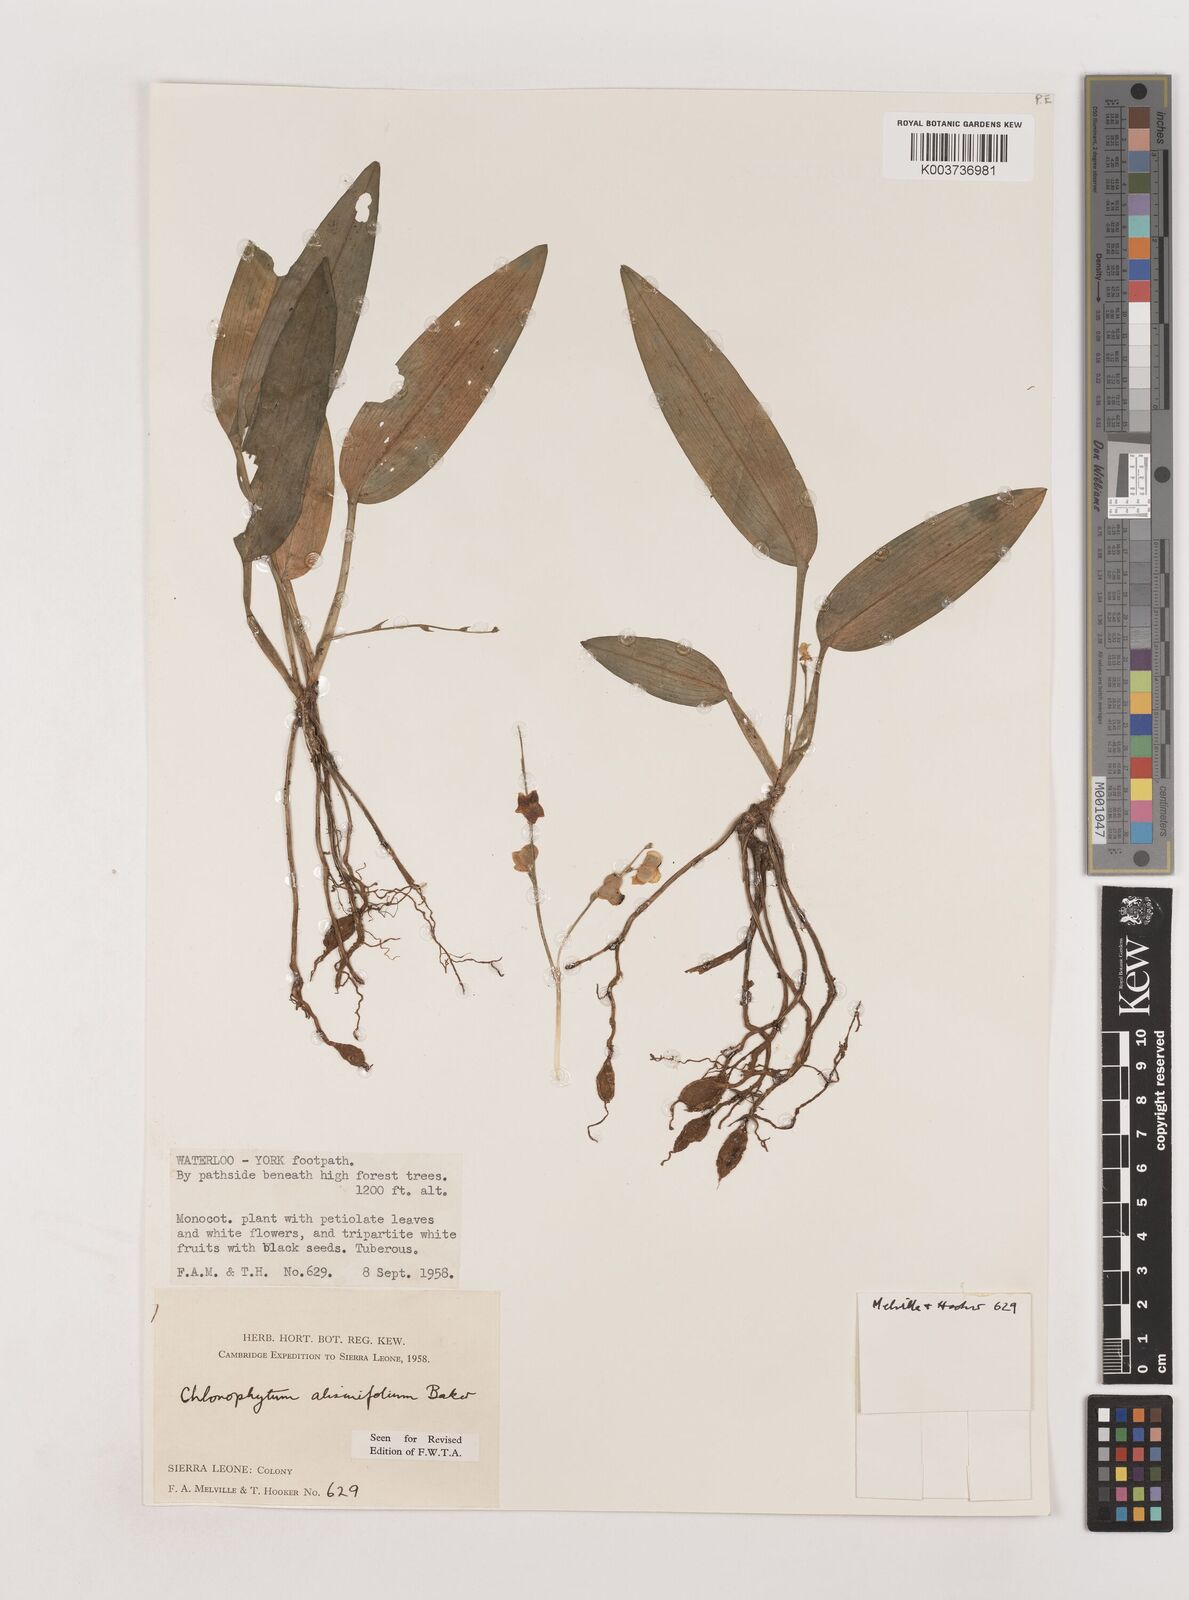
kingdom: Plantae
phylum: Tracheophyta
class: Liliopsida
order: Asparagales
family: Asparagaceae
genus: Chlorophytum
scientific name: Chlorophytum alismifolium
